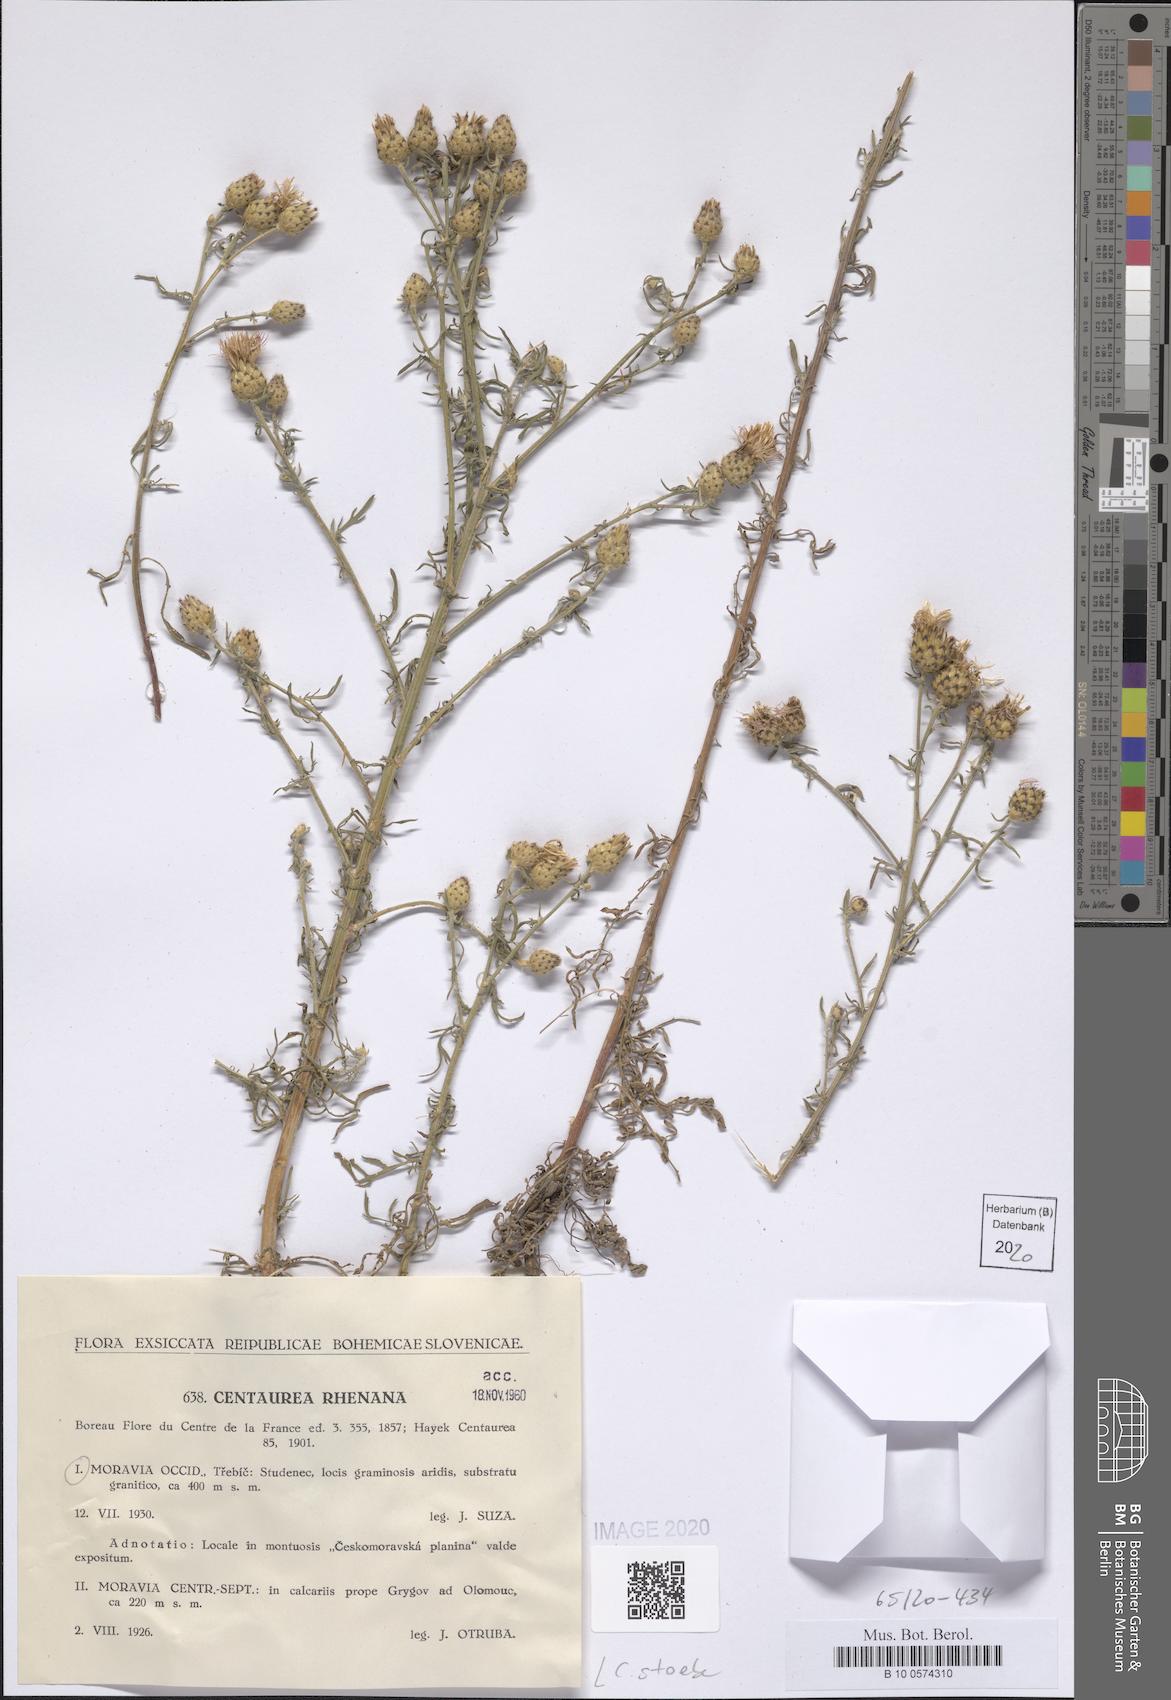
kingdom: Plantae
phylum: Tracheophyta
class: Magnoliopsida
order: Asterales
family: Asteraceae
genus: Centaurea
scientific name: Centaurea stoebe
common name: Spotted knapweed
